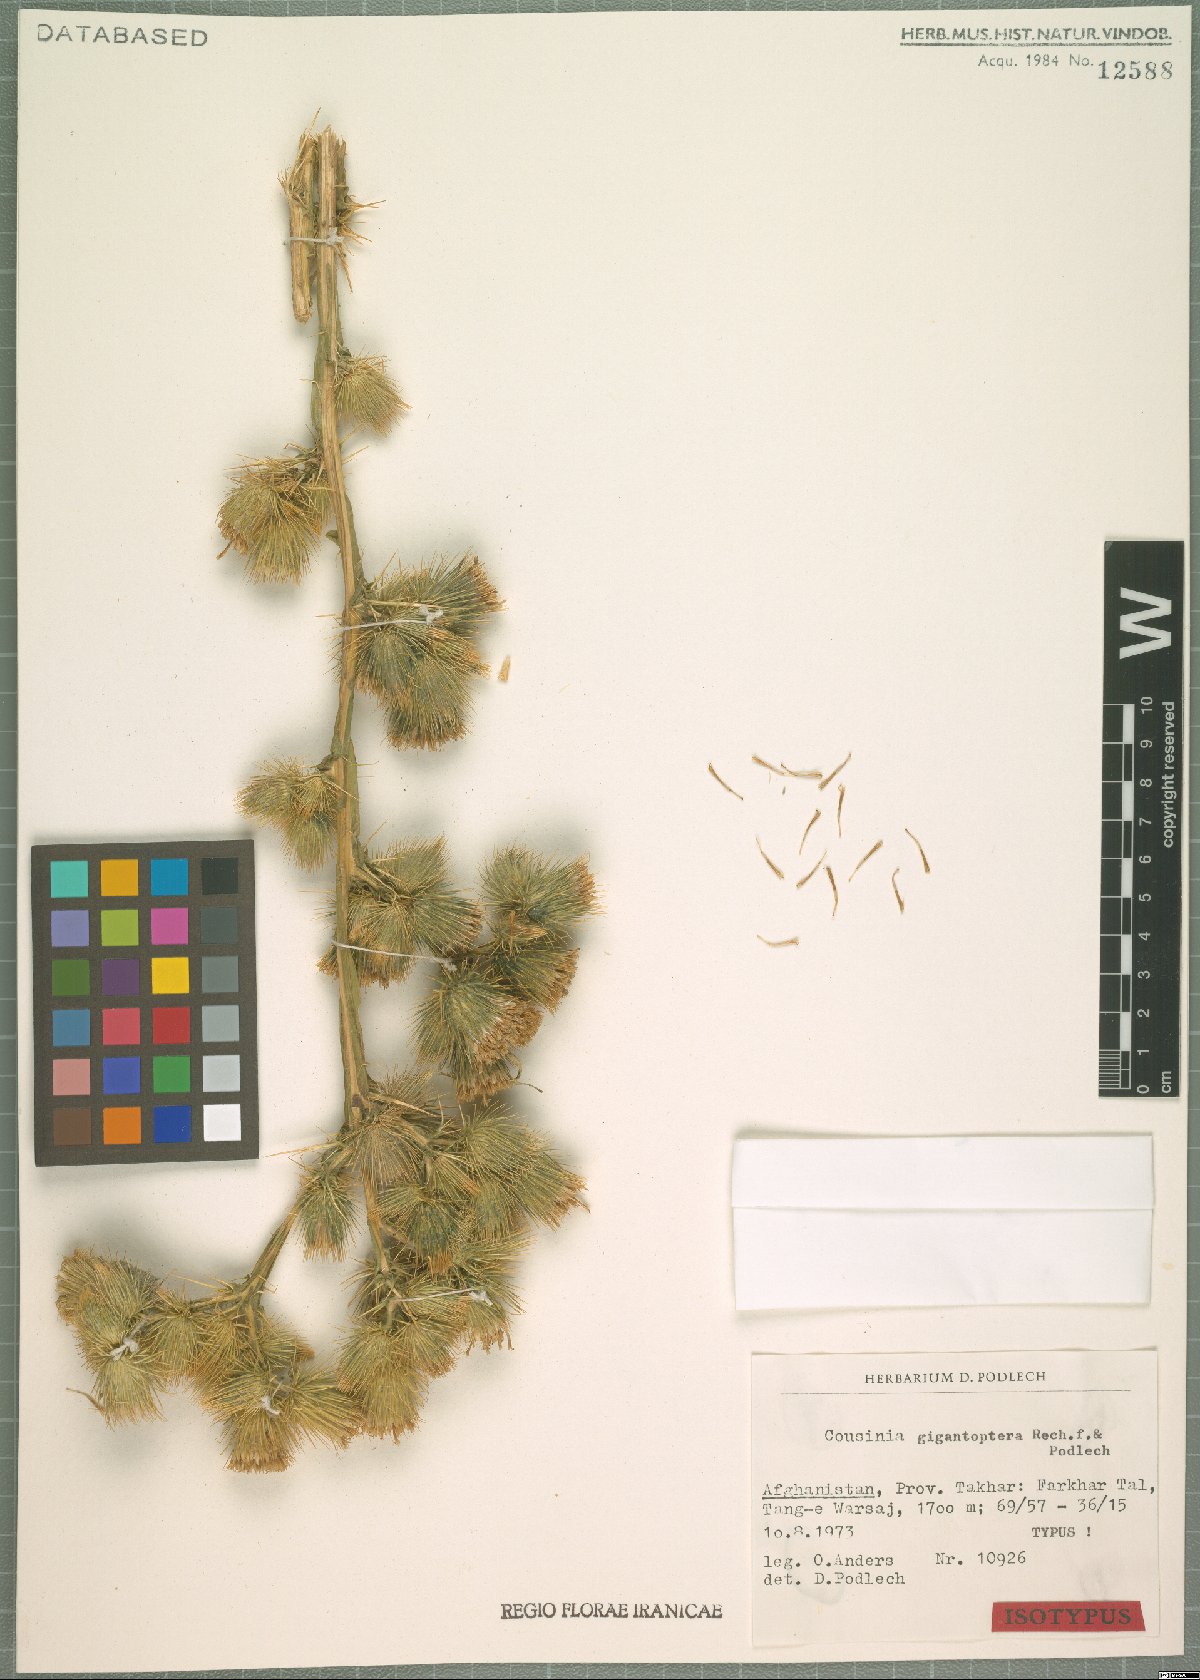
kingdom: Plantae
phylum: Tracheophyta
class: Magnoliopsida
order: Asterales
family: Asteraceae
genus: Cousinia
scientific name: Cousinia gigantoptera
